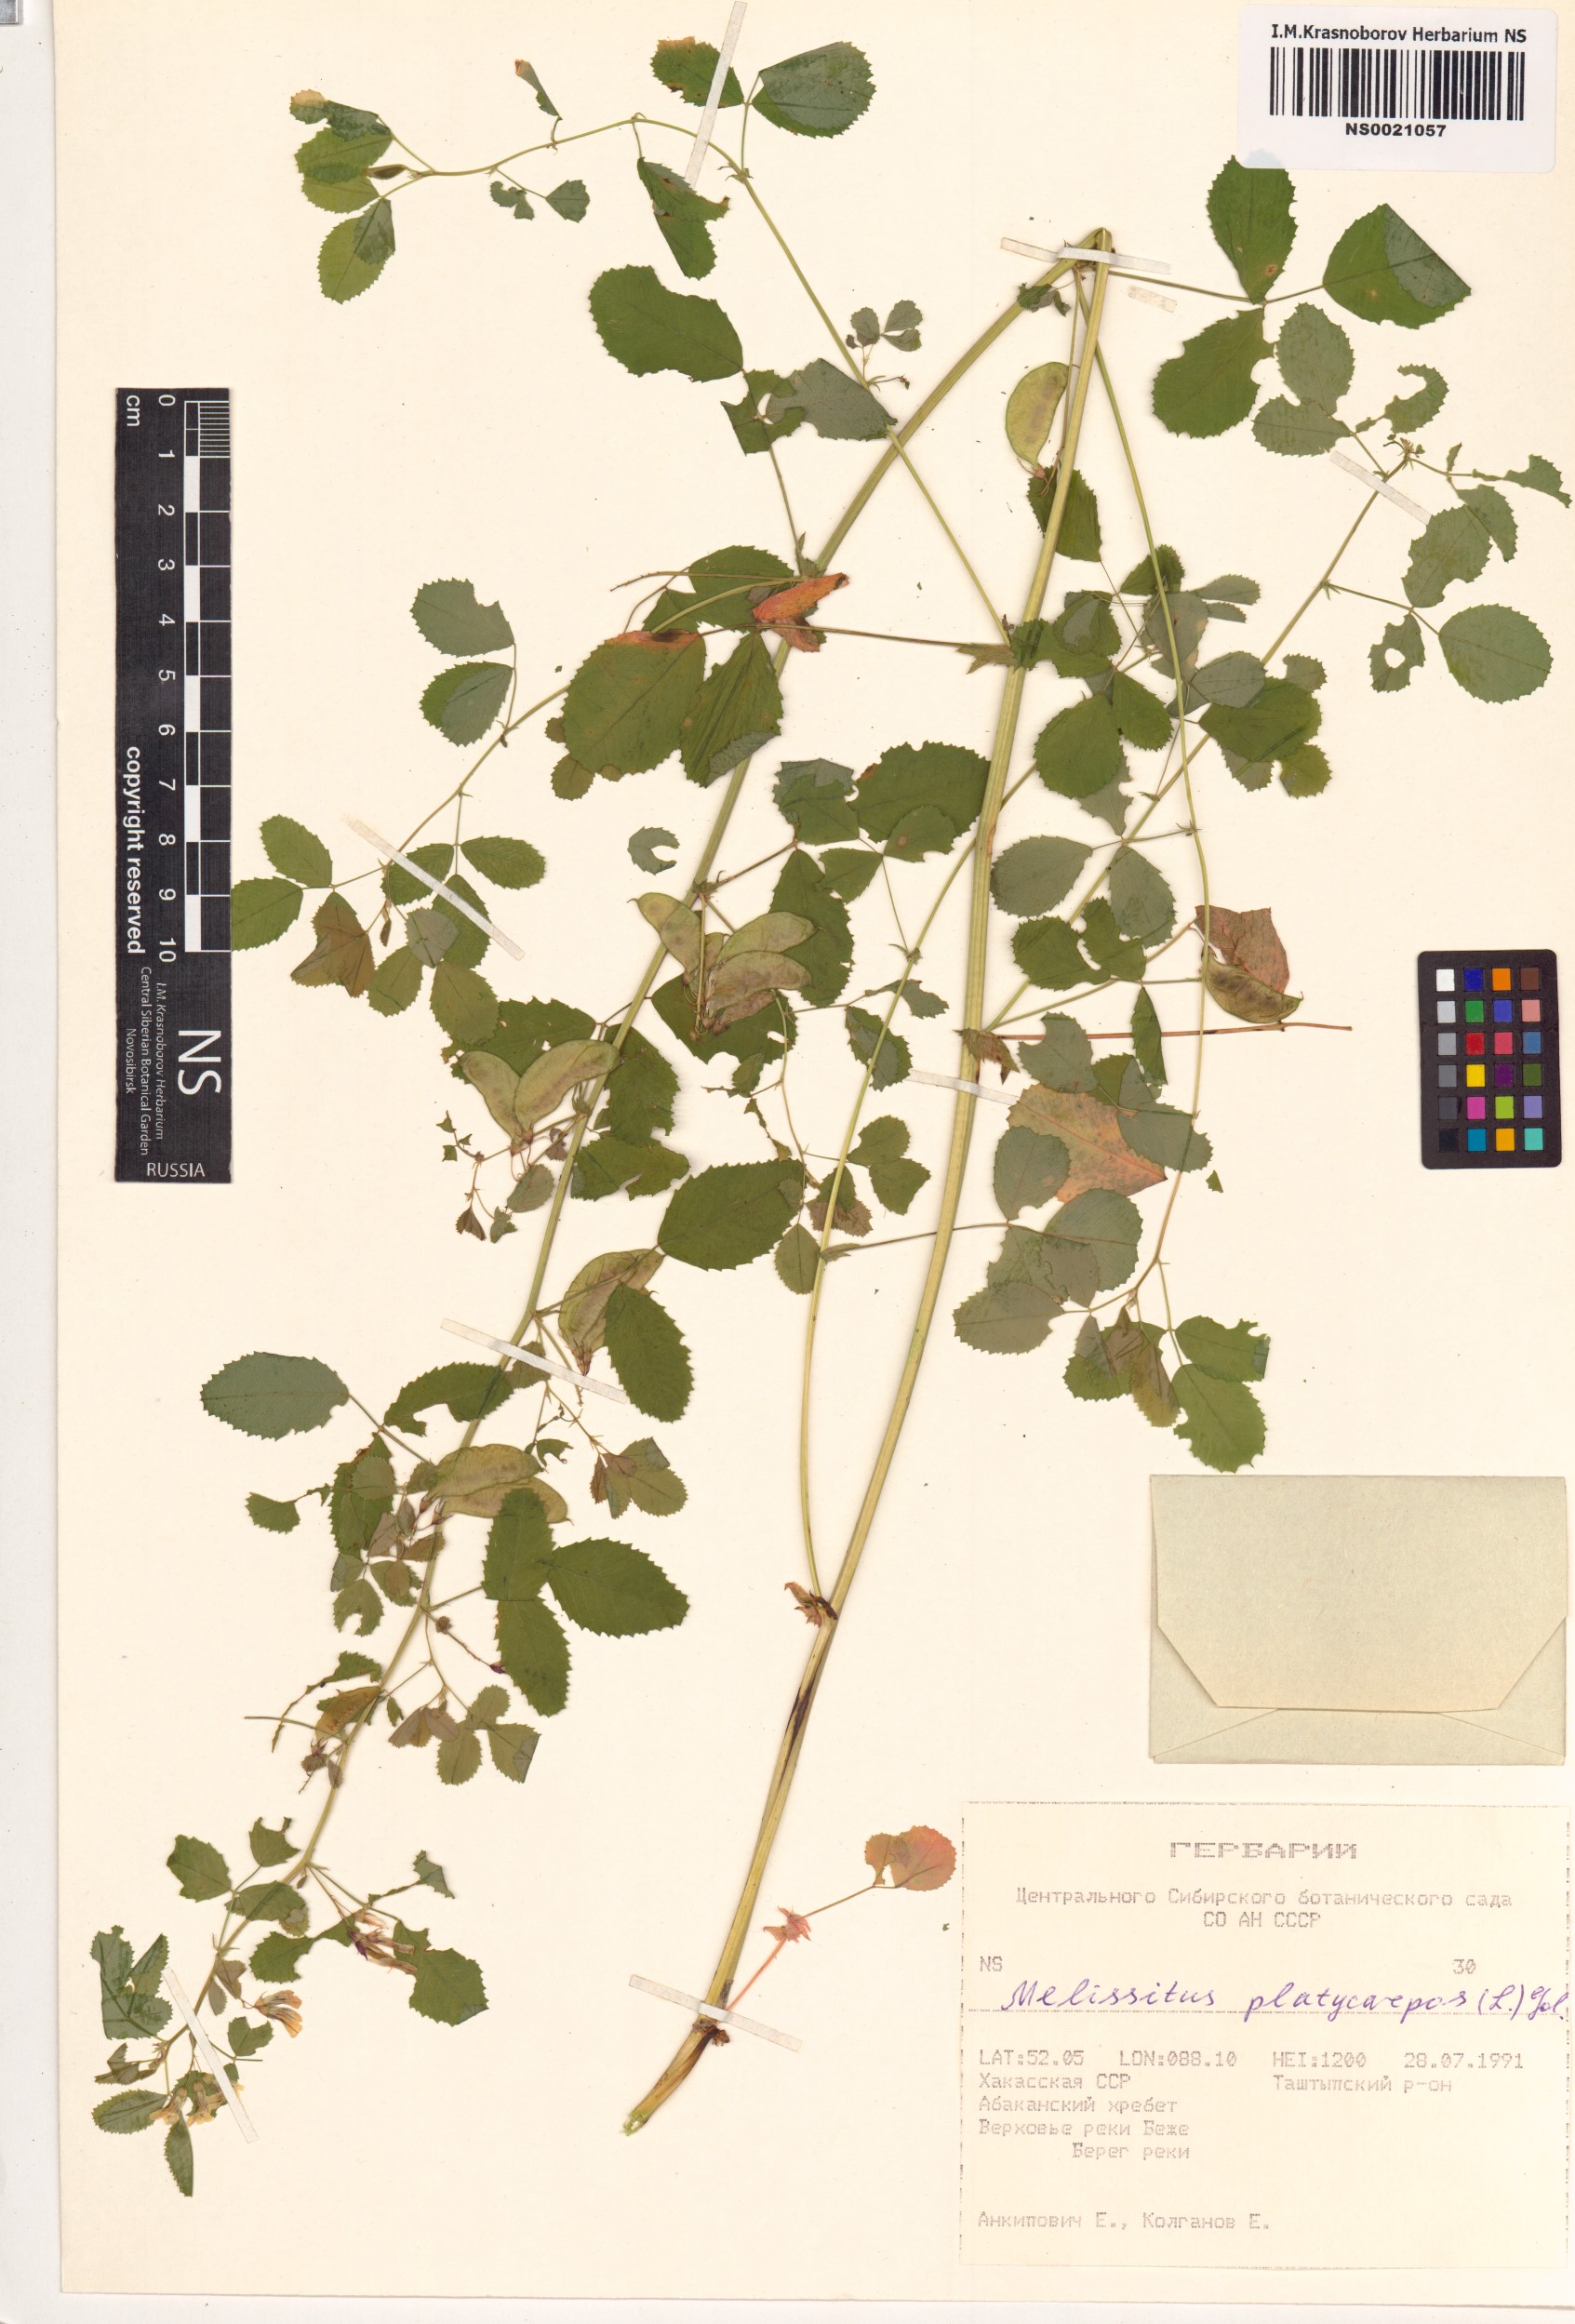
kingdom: Plantae
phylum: Tracheophyta
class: Magnoliopsida
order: Fabales
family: Fabaceae
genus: Medicago
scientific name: Medicago platycarpos
